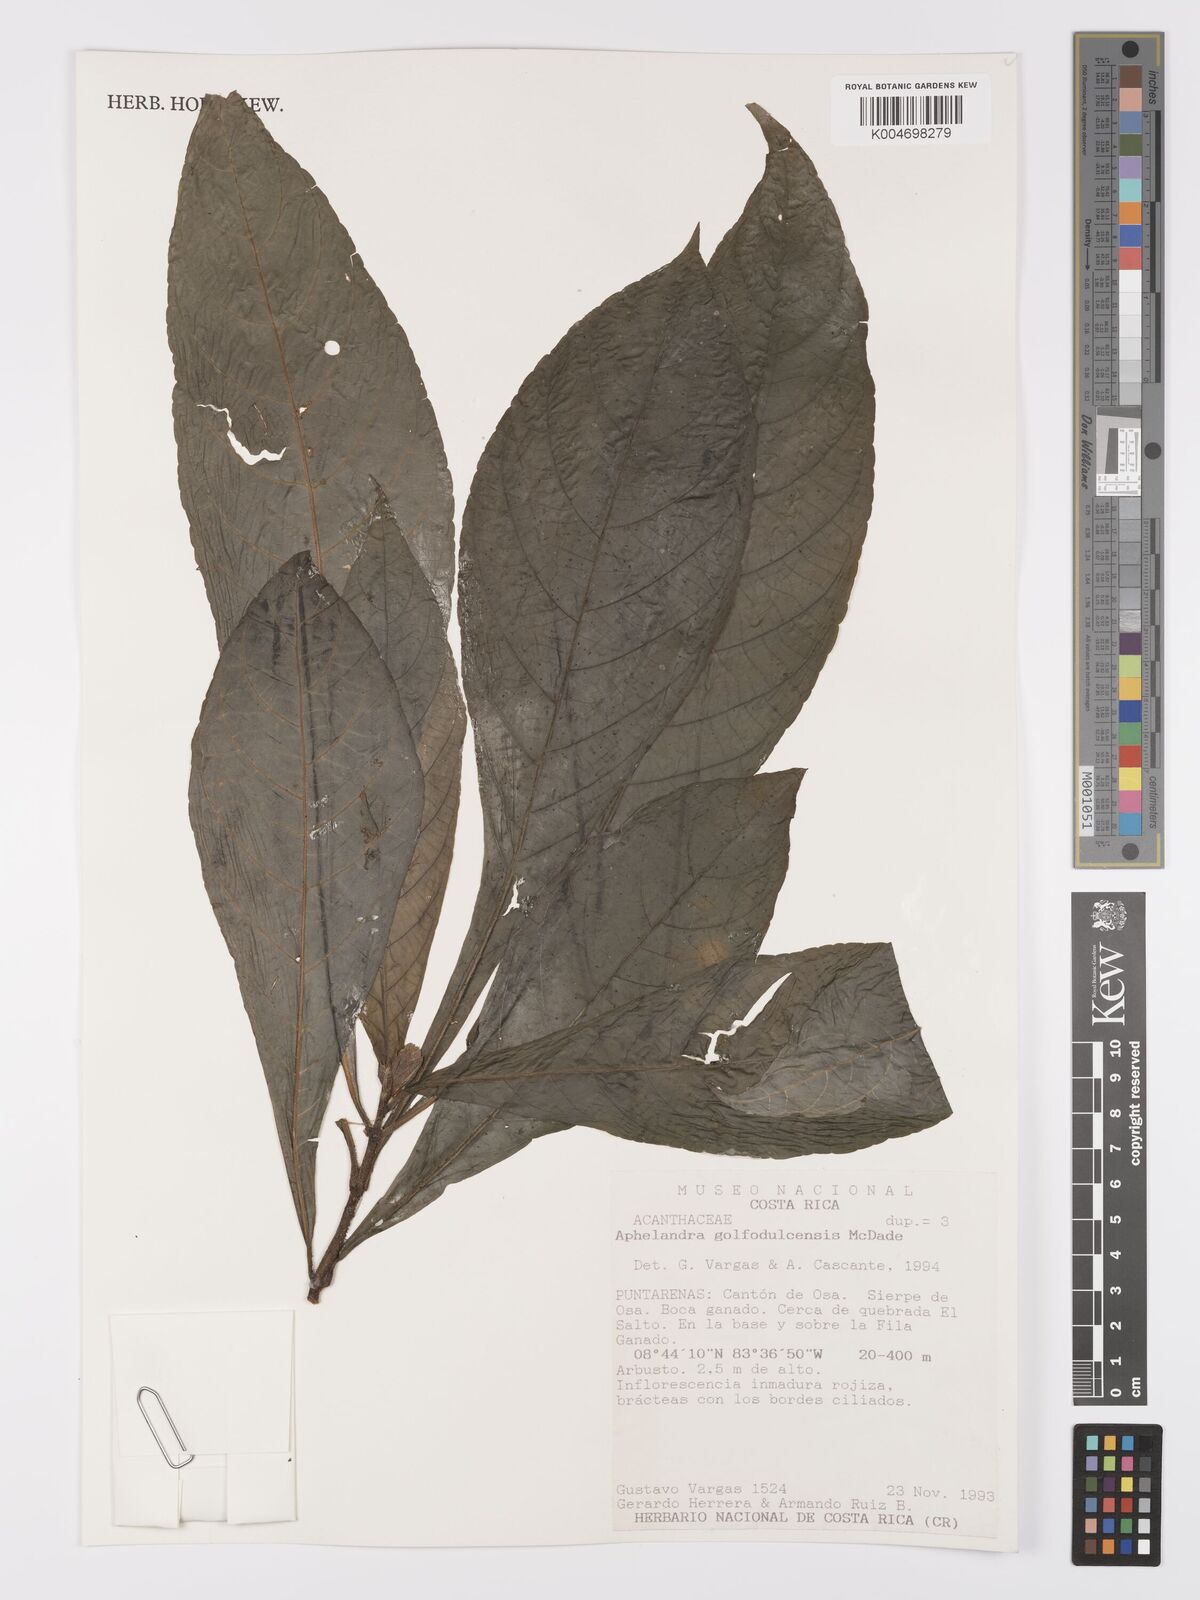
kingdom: Plantae
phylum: Tracheophyta
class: Magnoliopsida
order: Lamiales
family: Acanthaceae
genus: Aphelandra
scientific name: Aphelandra golfodulcensis
